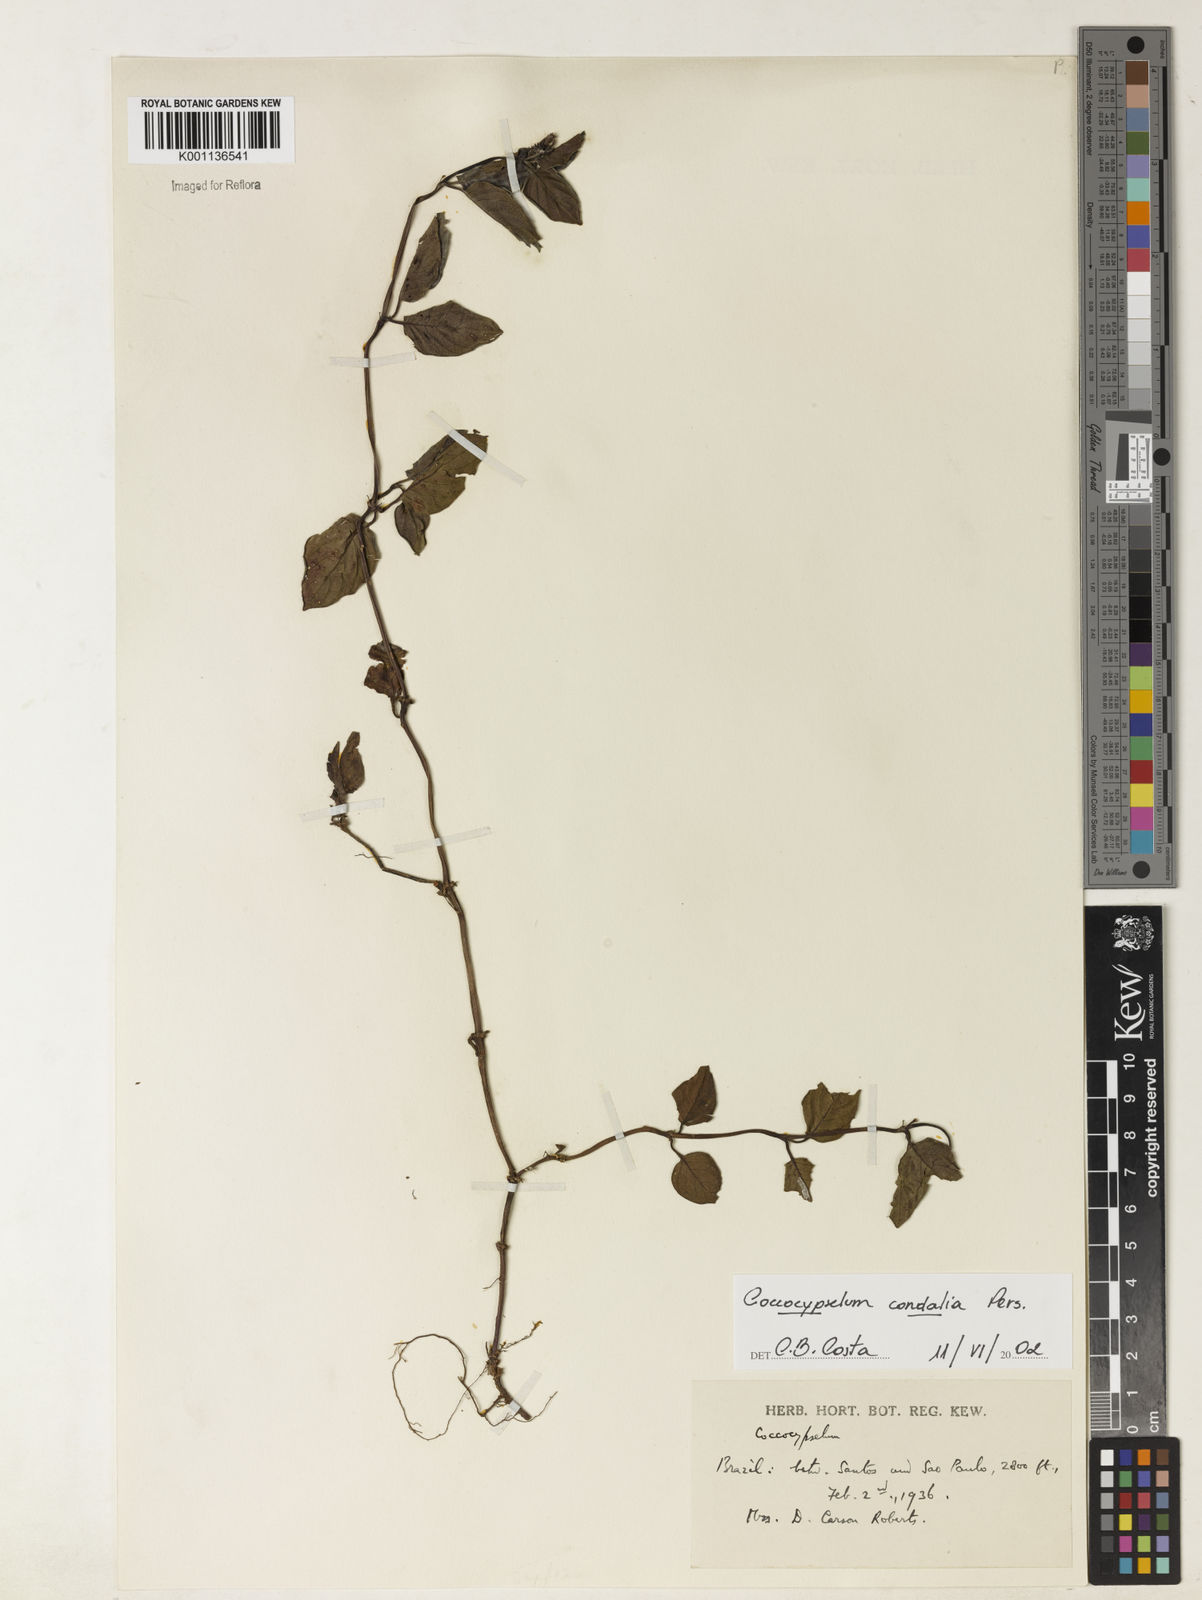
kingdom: Plantae
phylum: Tracheophyta
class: Magnoliopsida
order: Gentianales
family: Rubiaceae
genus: Coccocypselum
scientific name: Coccocypselum condalia
